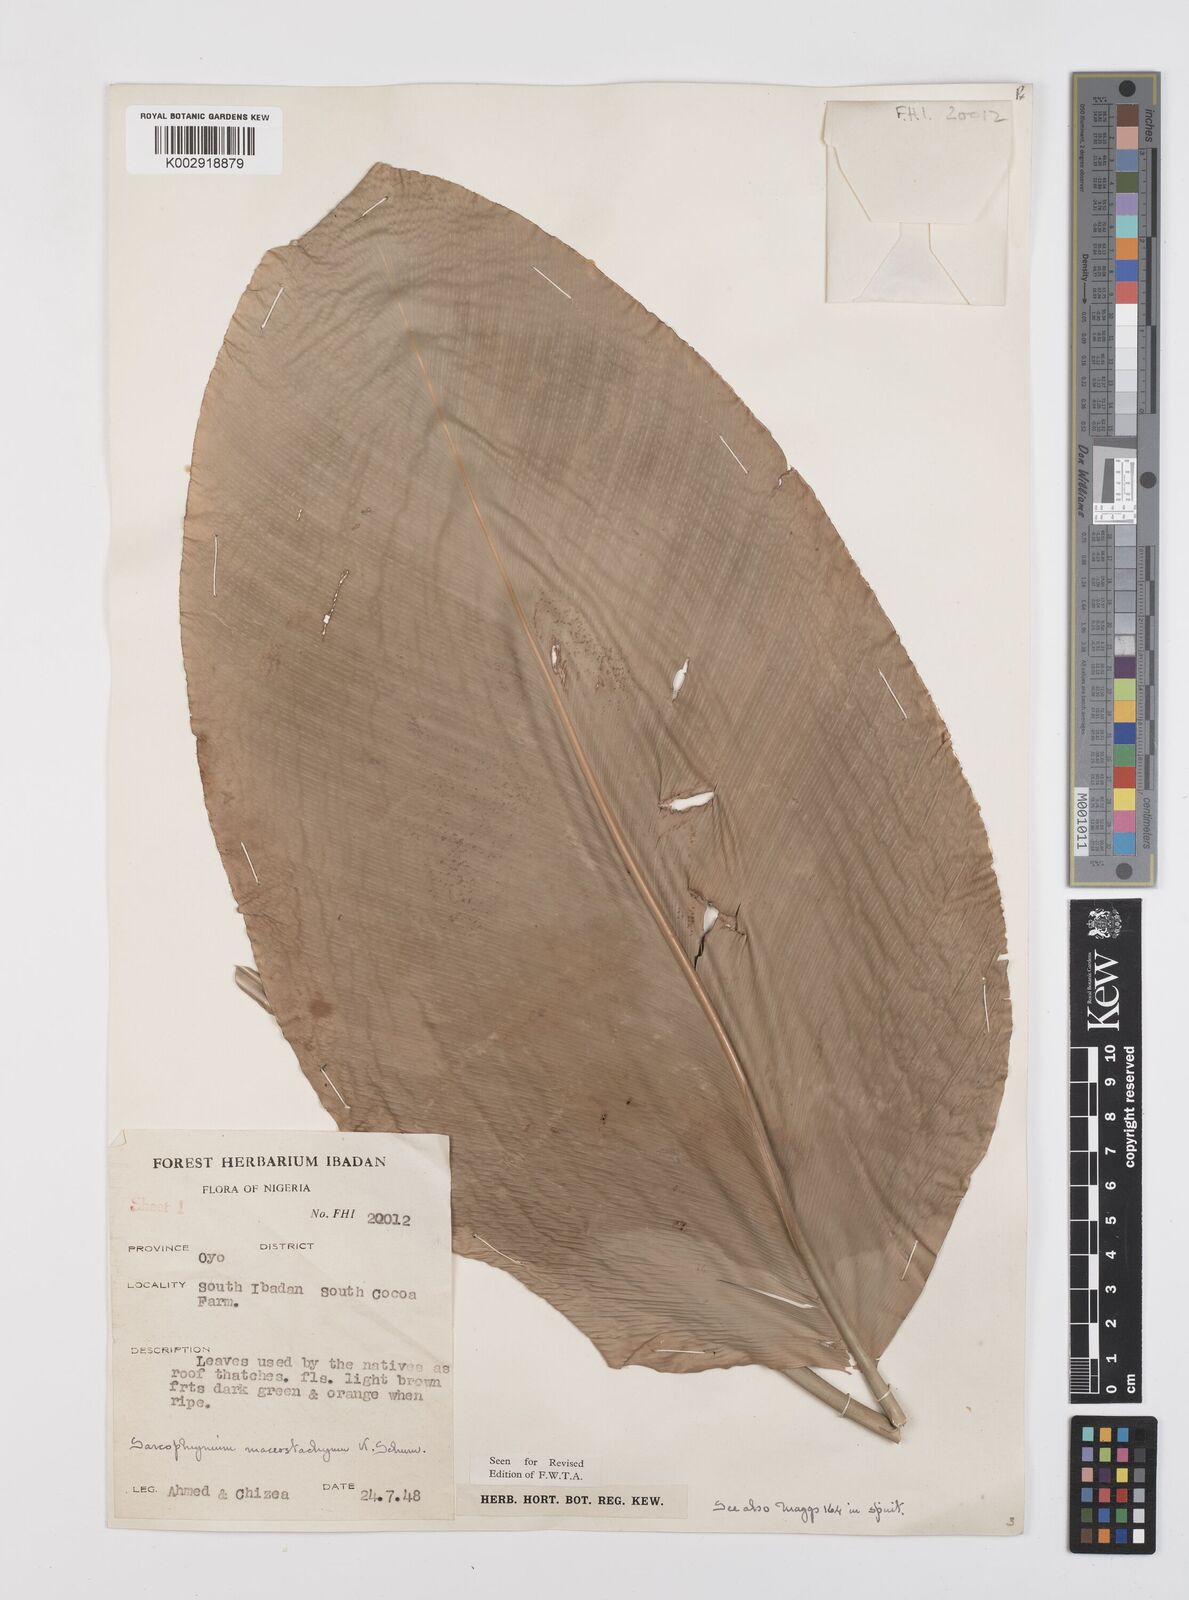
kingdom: Plantae
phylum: Tracheophyta
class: Liliopsida
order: Zingiberales
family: Marantaceae
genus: Megaphrynium
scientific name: Megaphrynium macrostachyum
